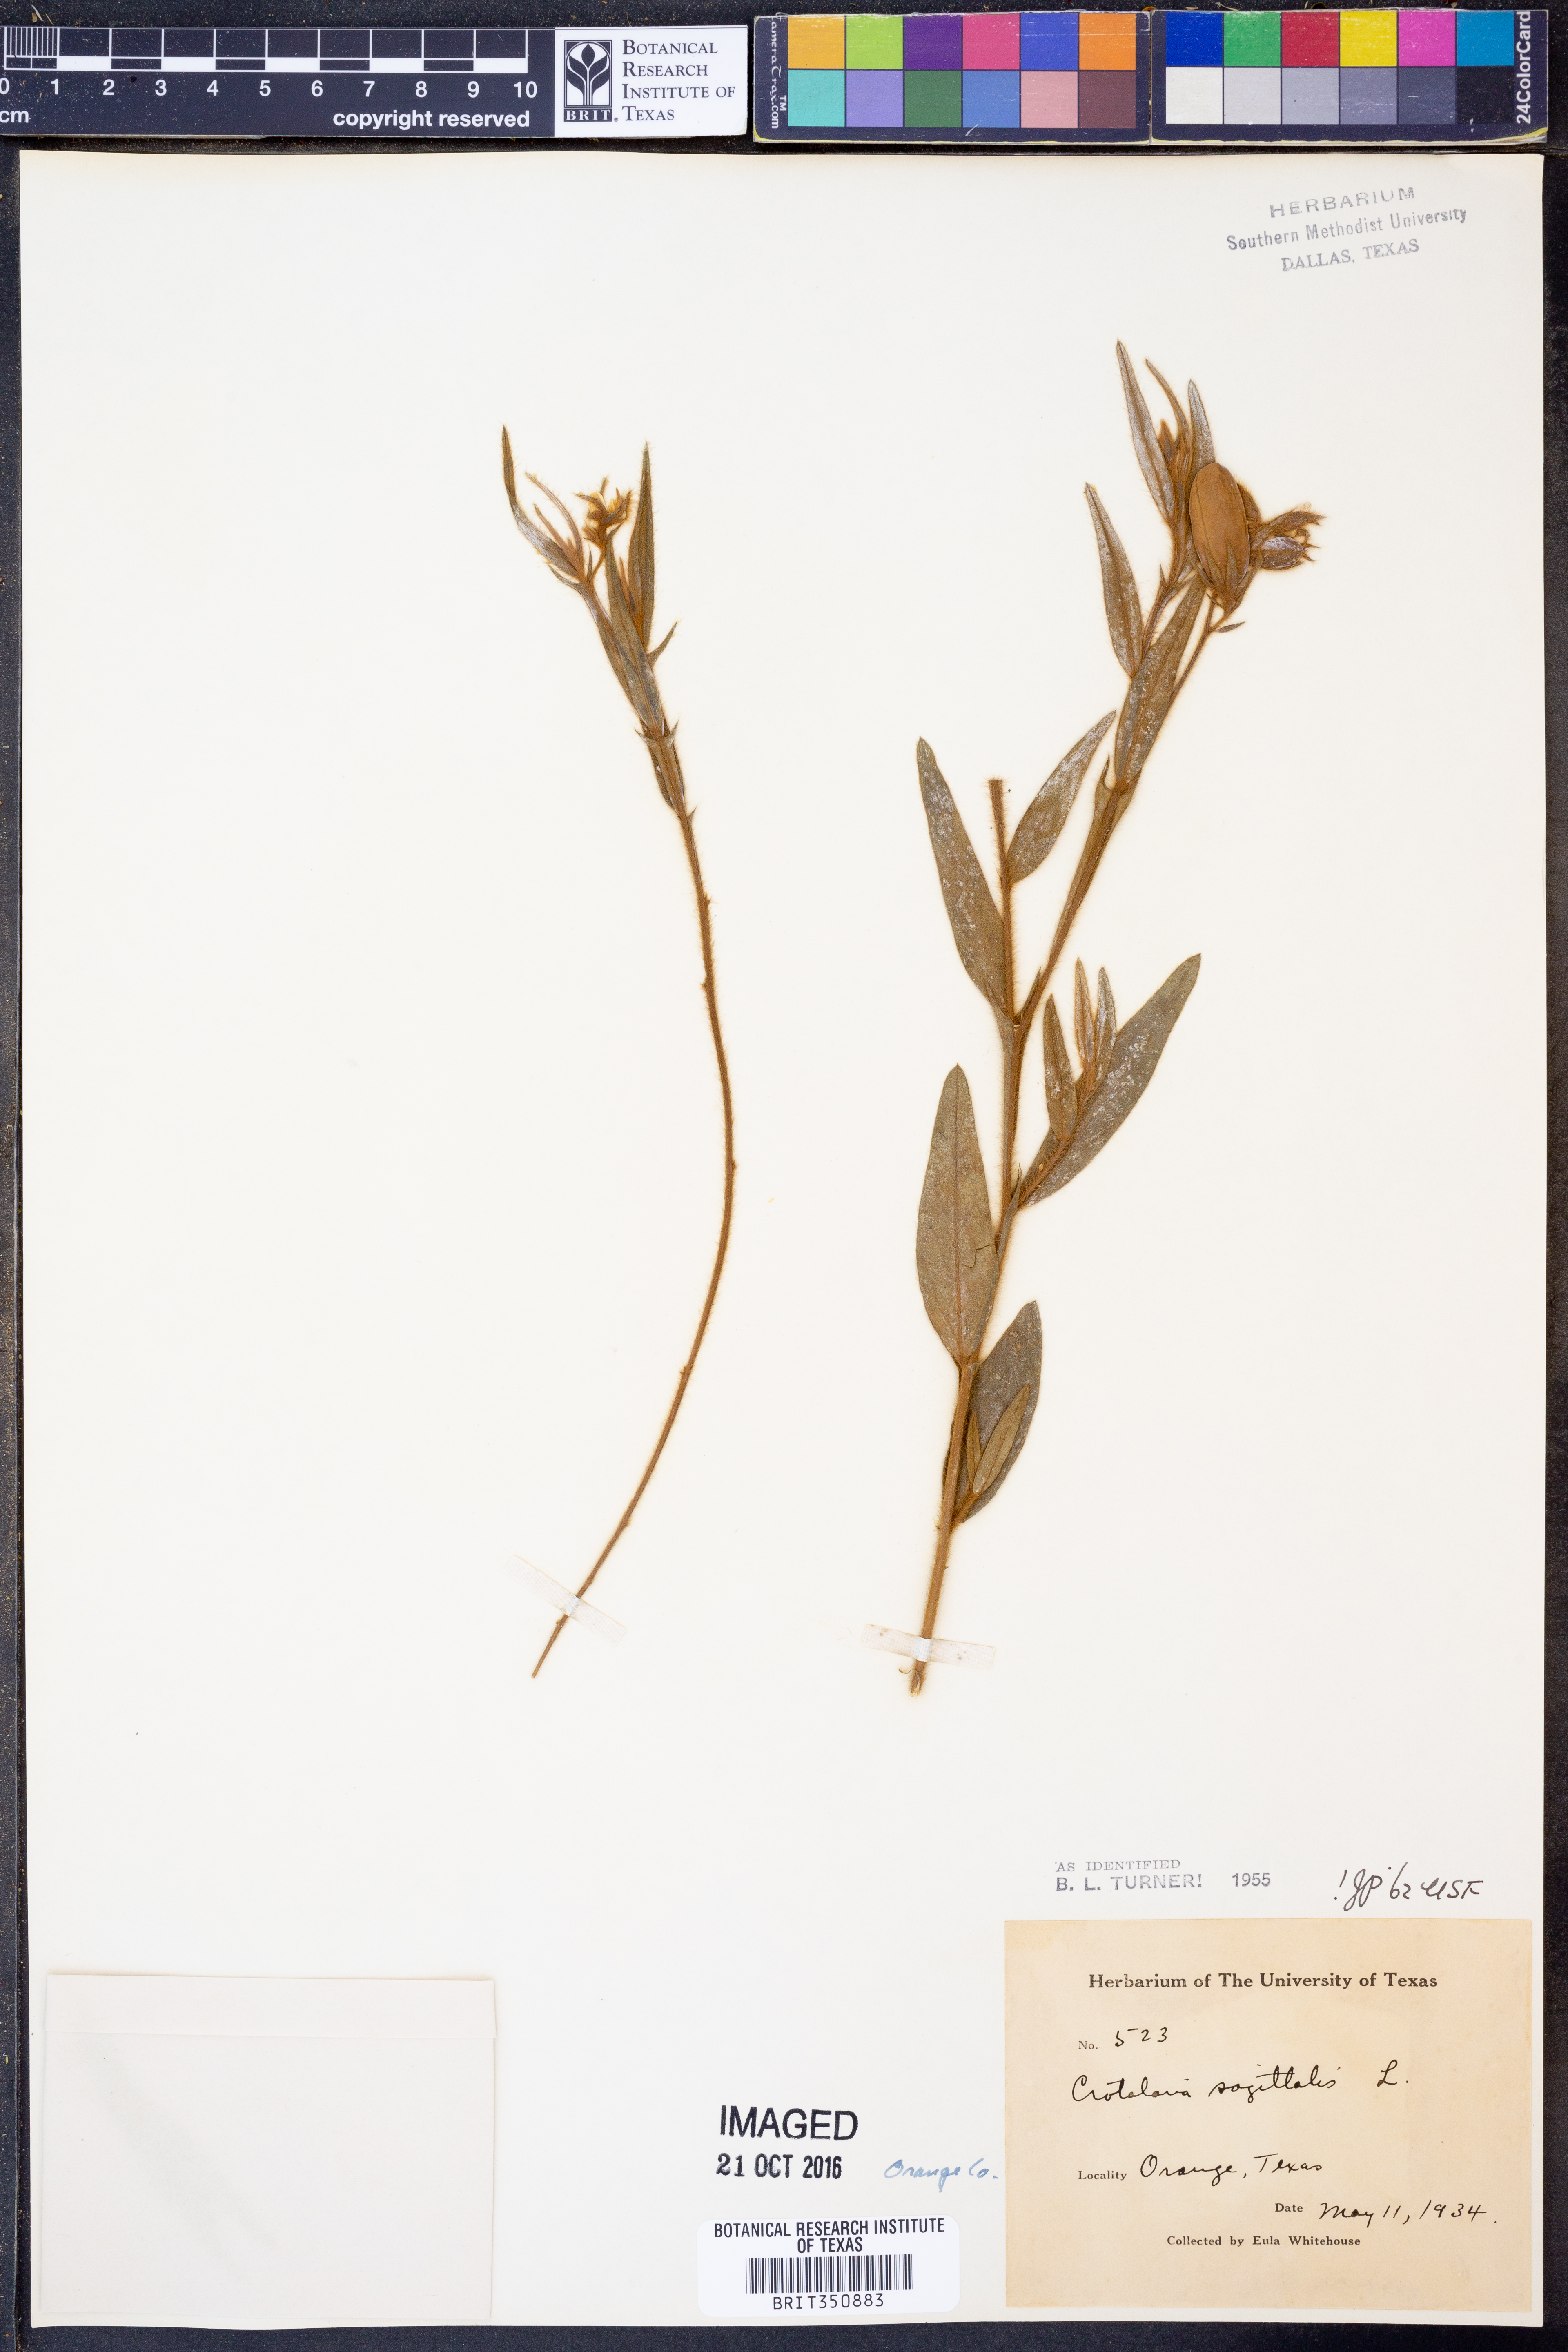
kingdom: Plantae
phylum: Tracheophyta
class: Magnoliopsida
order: Fabales
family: Fabaceae
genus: Crotalaria
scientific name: Crotalaria sagittalis
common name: Arrowhead rattlebox
